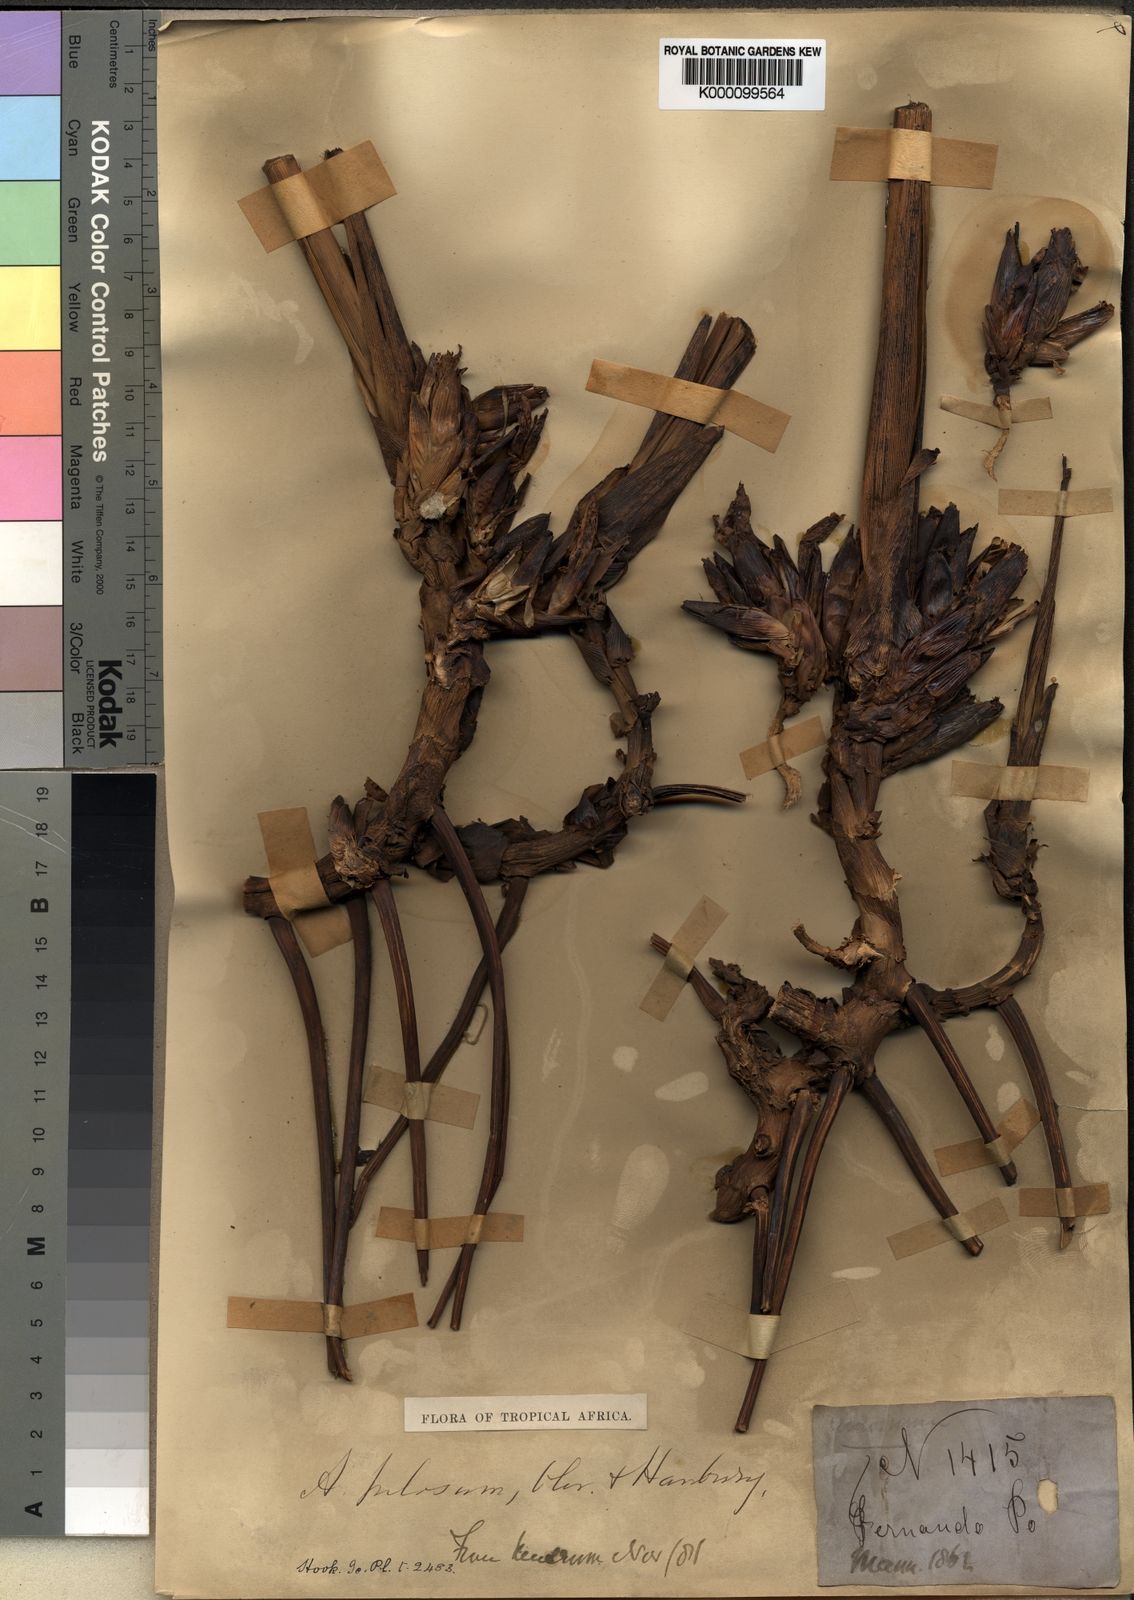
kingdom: Plantae
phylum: Tracheophyta
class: Liliopsida
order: Zingiberales
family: Zingiberaceae
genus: Aframomum
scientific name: Aframomum pilosum
